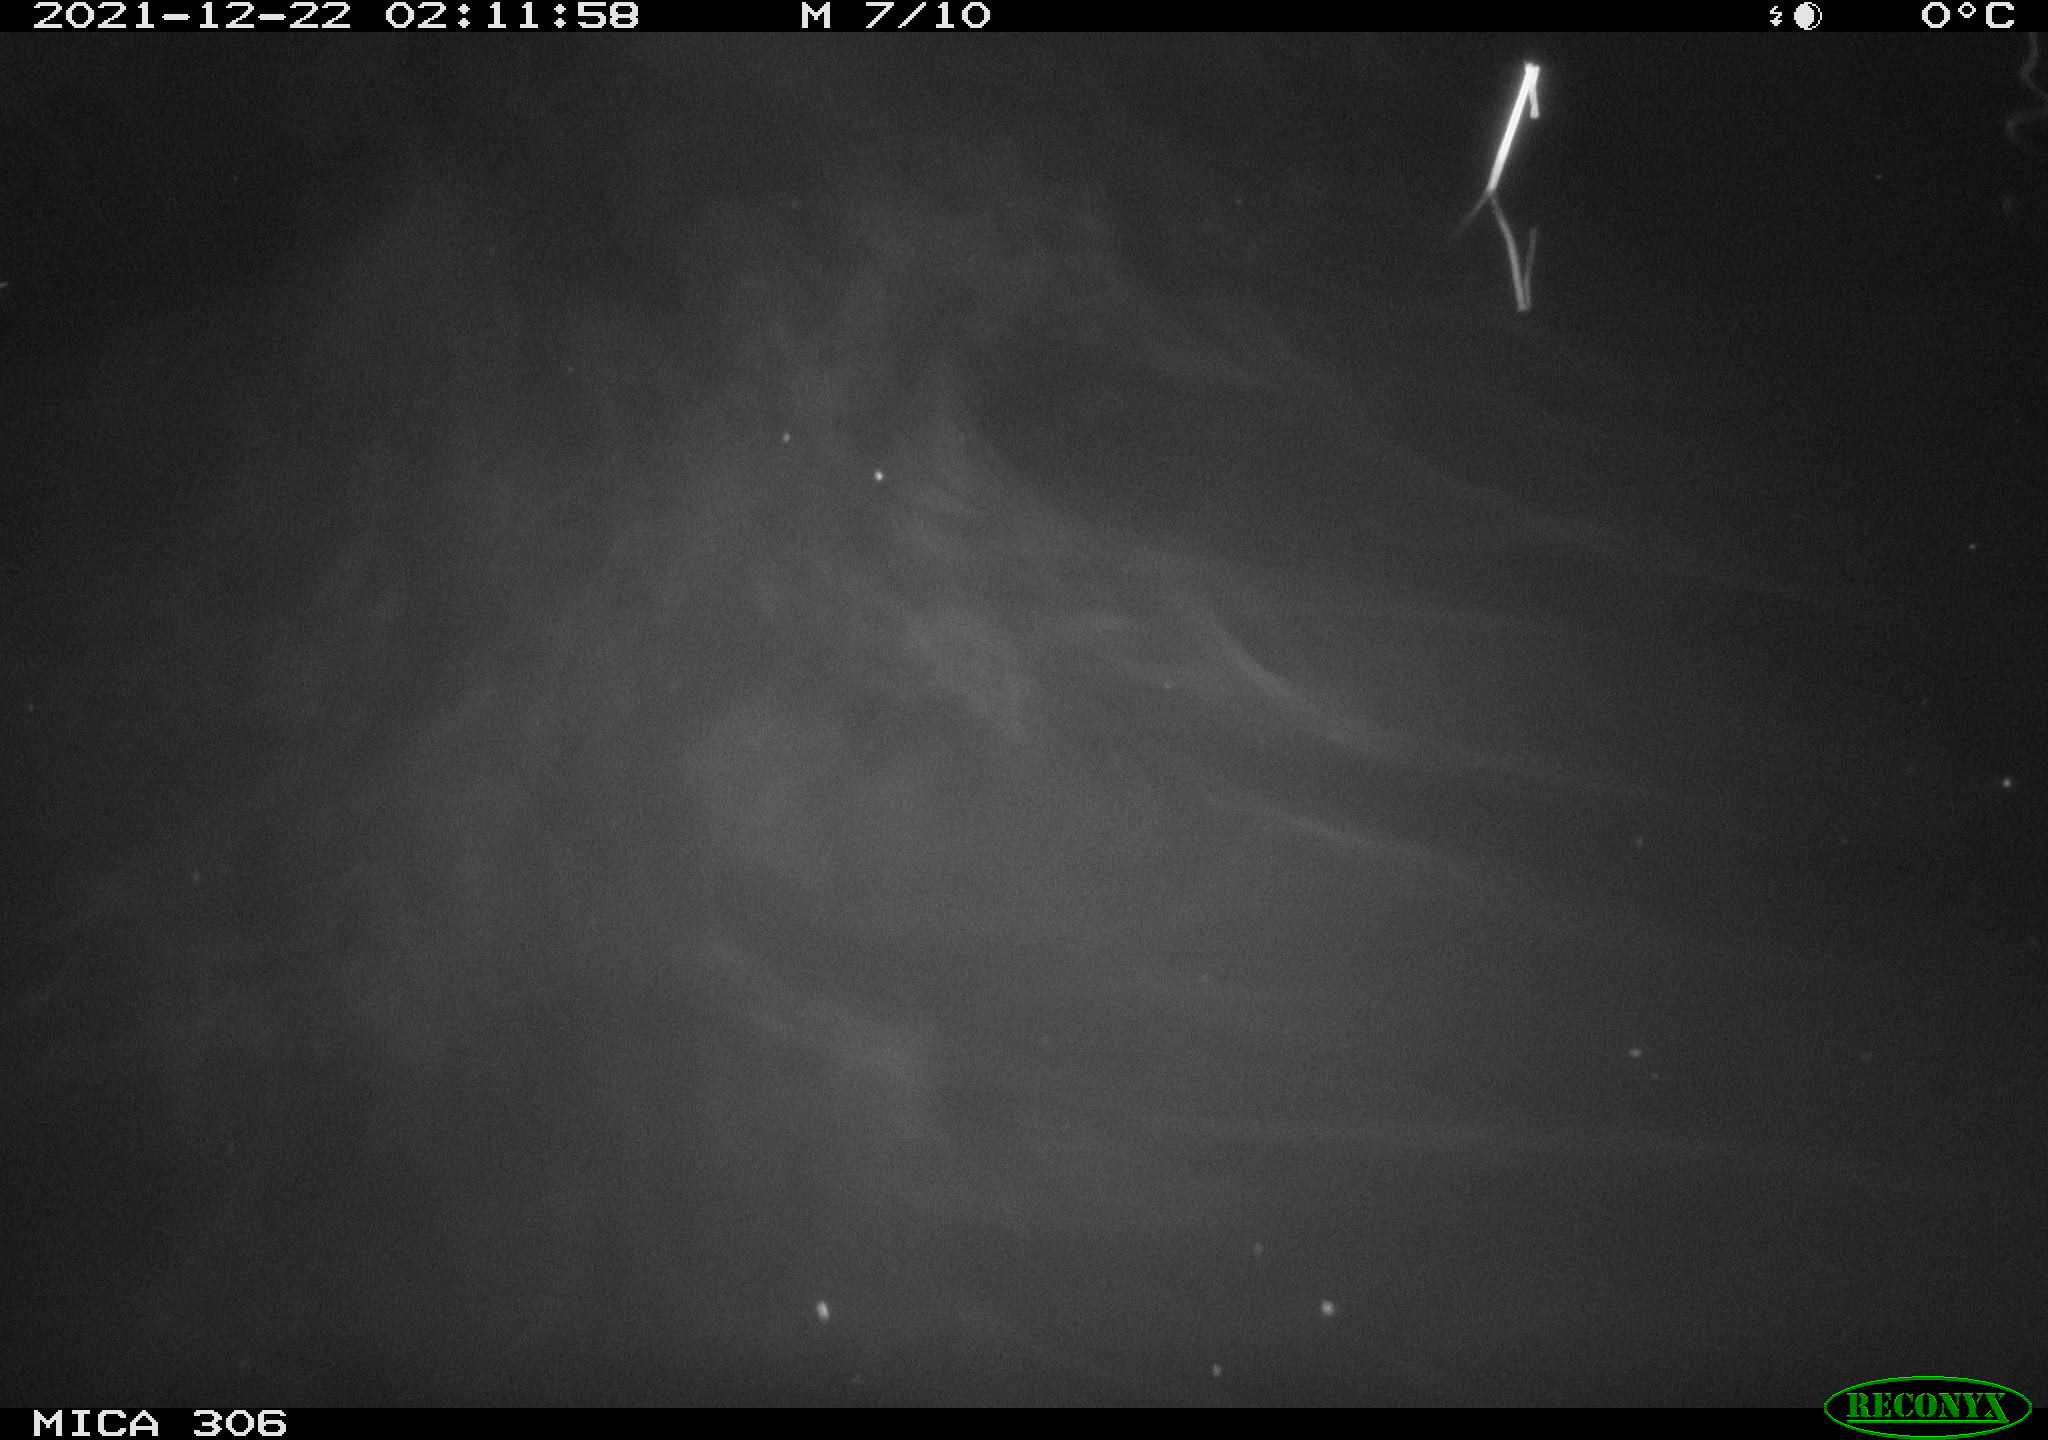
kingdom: Animalia
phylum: Chordata
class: Mammalia
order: Rodentia
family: Cricetidae
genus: Ondatra
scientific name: Ondatra zibethicus
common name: Muskrat
